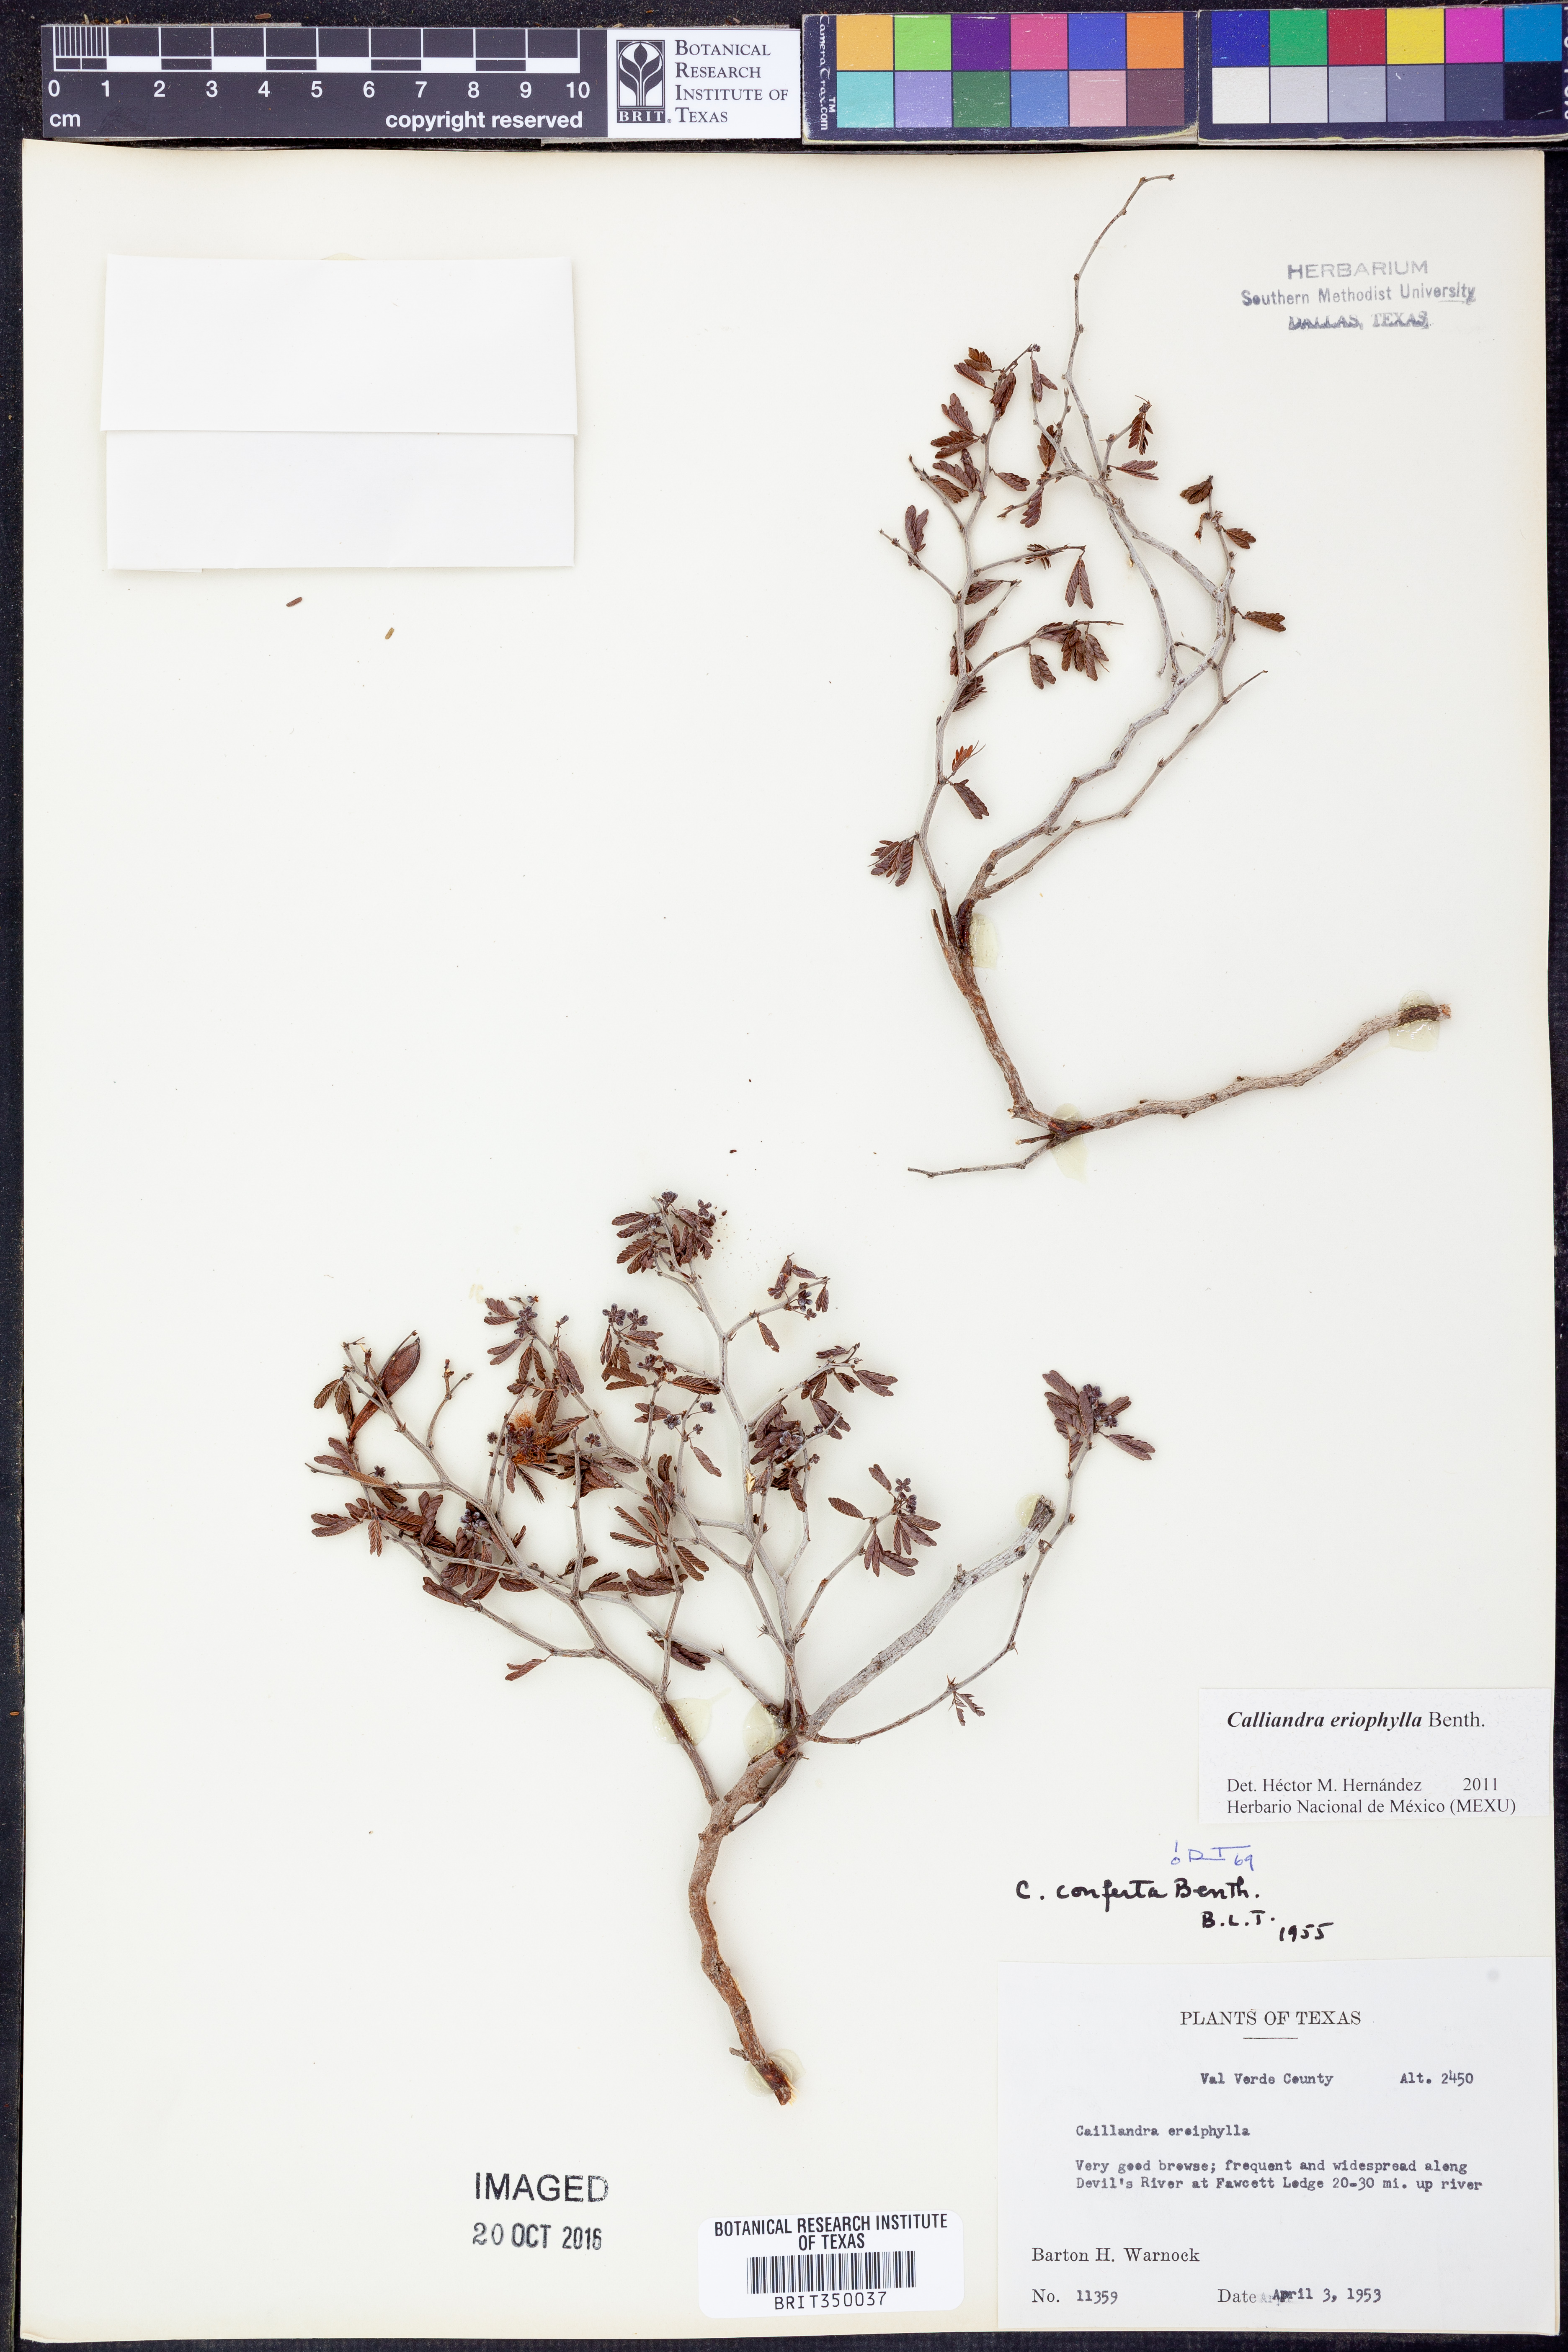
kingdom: Plantae
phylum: Tracheophyta
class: Magnoliopsida
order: Fabales
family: Fabaceae
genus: Calliandra
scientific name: Calliandra eriophylla
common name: Fairy-duster
